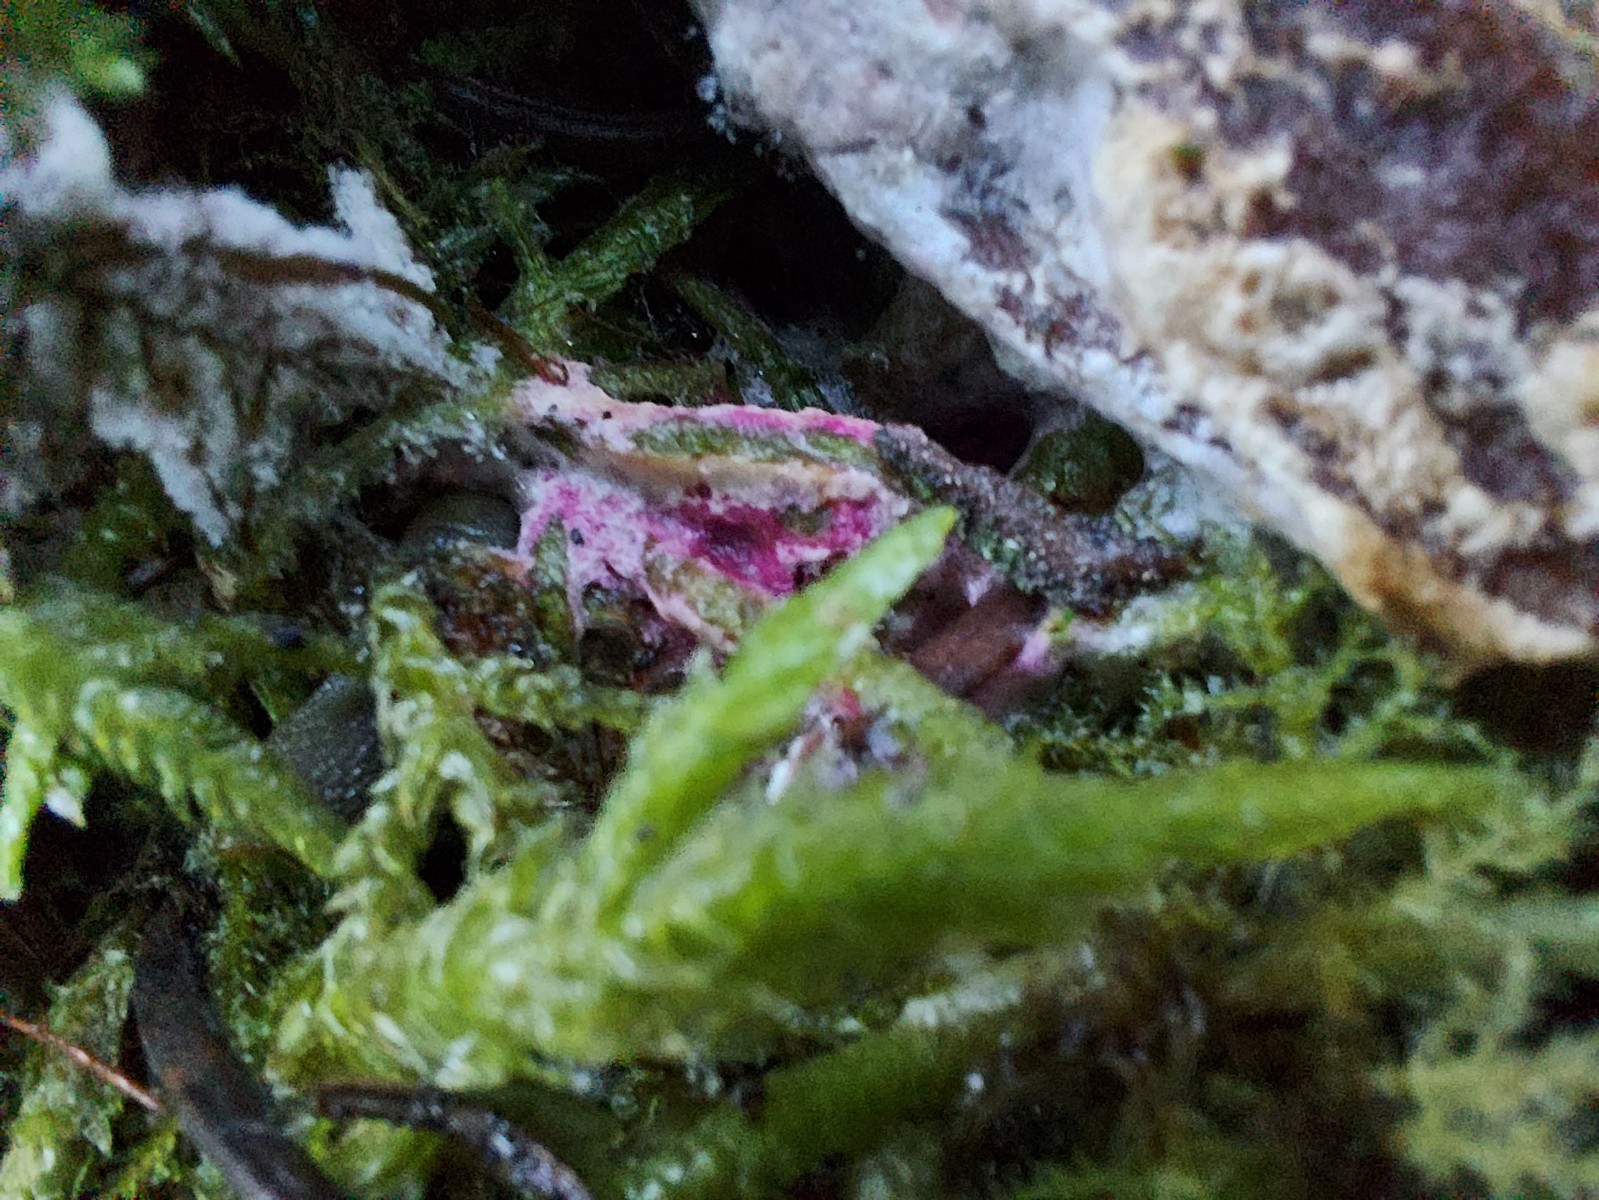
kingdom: Fungi
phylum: Ascomycota
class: Sordariomycetes
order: Hypocreales
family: Hypocreaceae
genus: Hypomyces
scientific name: Hypomyces rosellus
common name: rosa snylteskorpe
